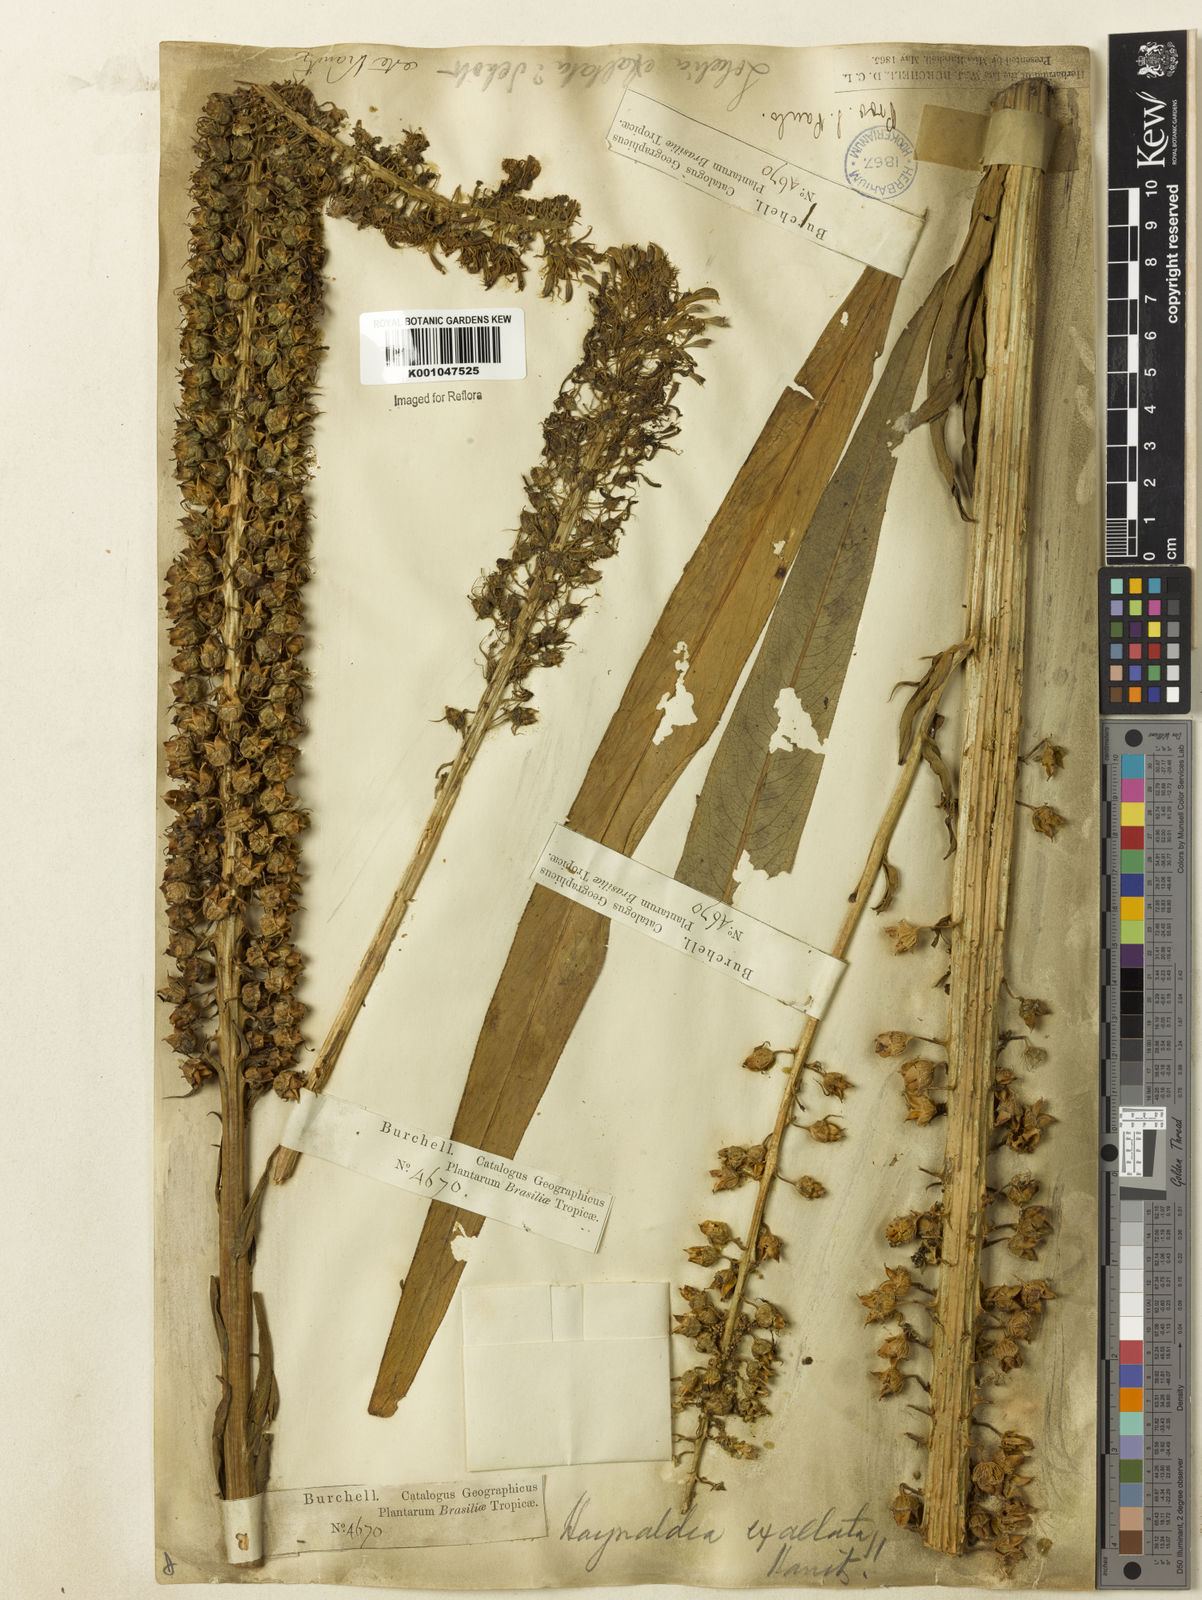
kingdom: Plantae
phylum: Tracheophyta
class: Magnoliopsida
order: Asterales
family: Campanulaceae
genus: Lobelia
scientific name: Lobelia exaltata
